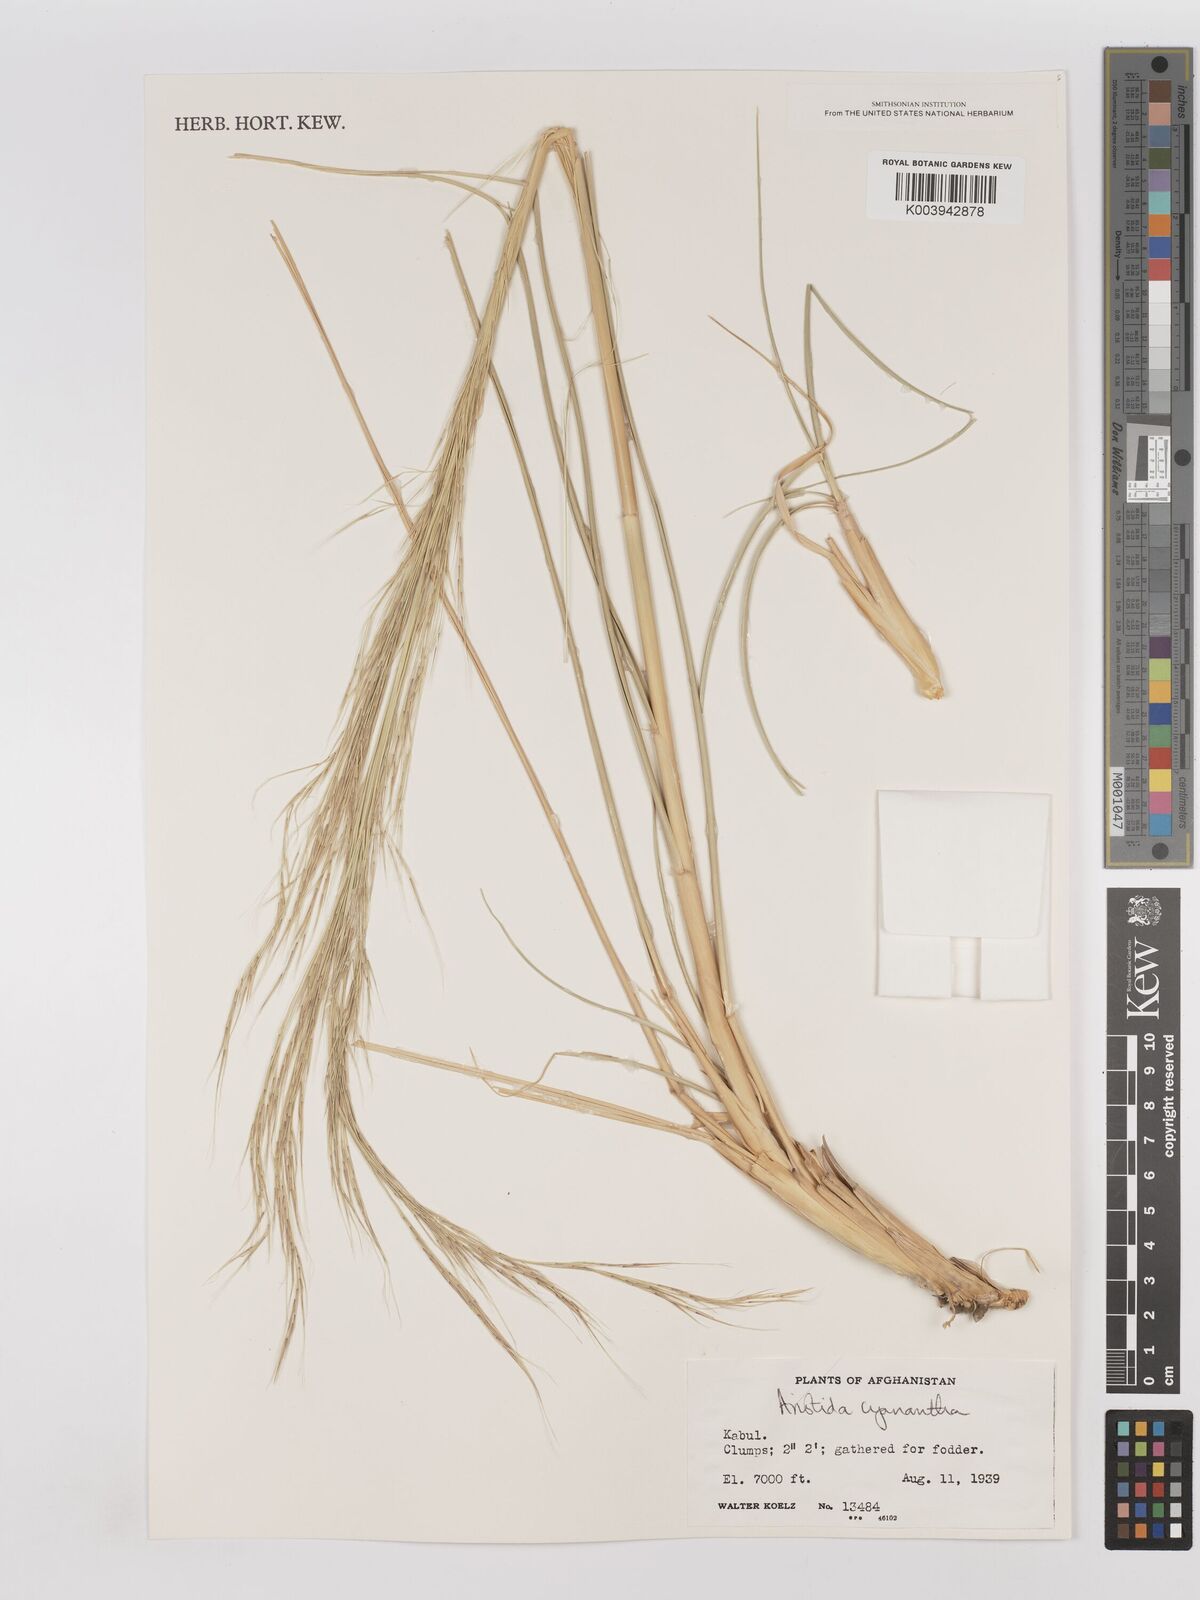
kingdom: Plantae
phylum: Tracheophyta
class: Liliopsida
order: Poales
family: Poaceae
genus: Aristida
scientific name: Aristida cyanantha
